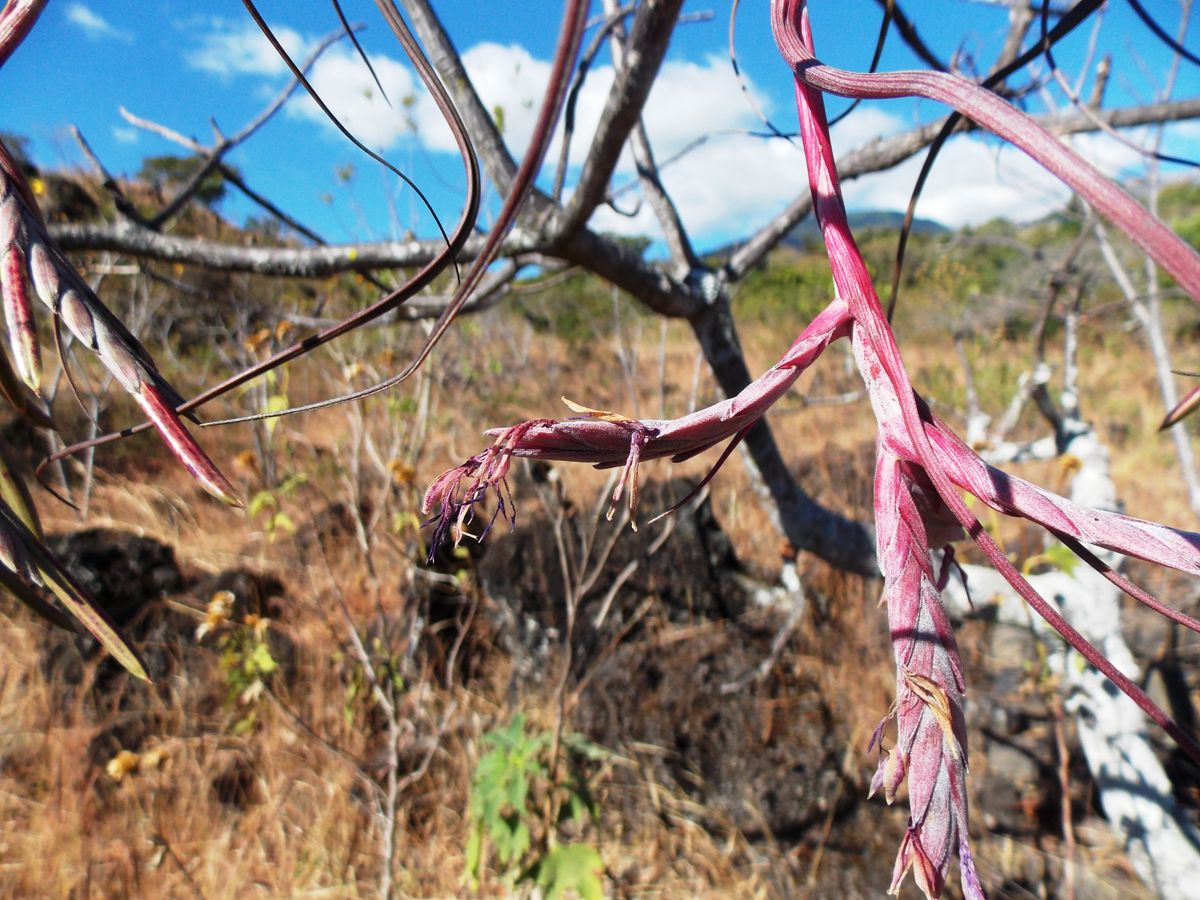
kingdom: Plantae
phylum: Tracheophyta
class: Liliopsida
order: Poales
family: Bromeliaceae
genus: Tillandsia
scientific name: Tillandsia pseudobaileyi
